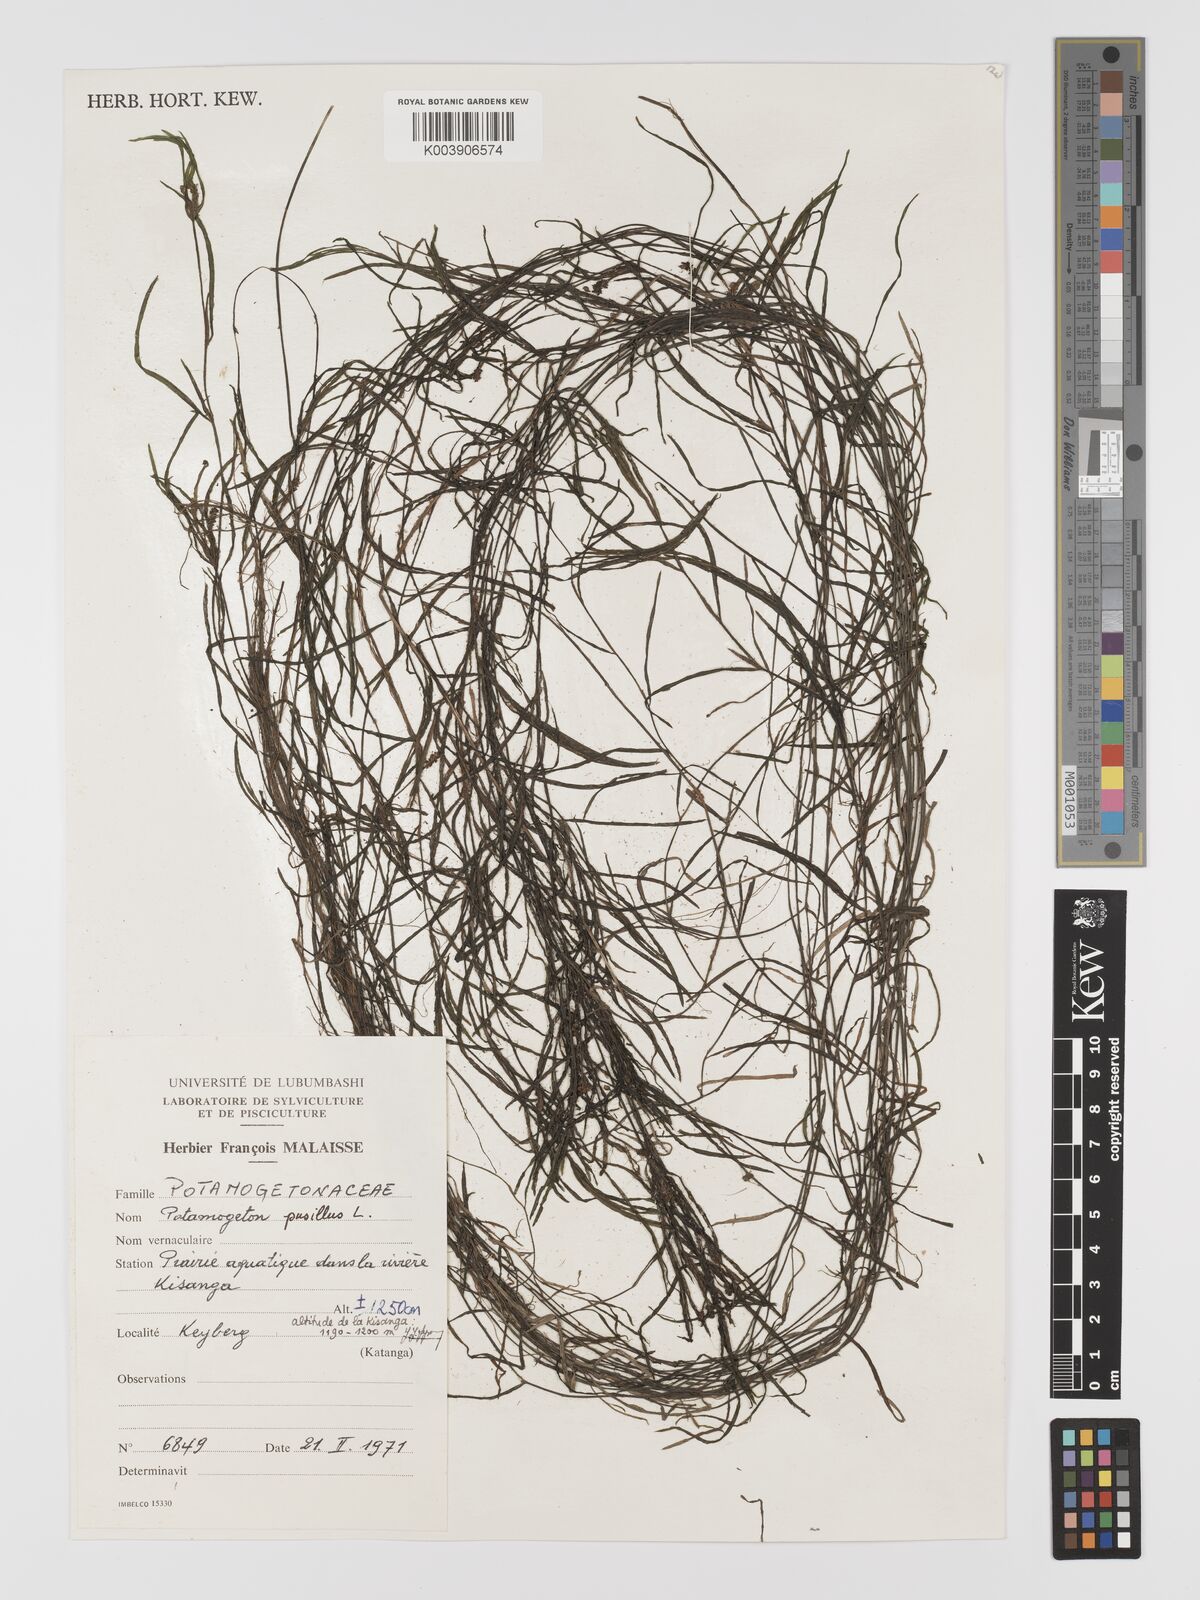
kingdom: Plantae
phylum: Tracheophyta
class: Liliopsida
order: Alismatales
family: Potamogetonaceae
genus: Potamogeton
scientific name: Potamogeton pusillus
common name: Lesser pondweed
